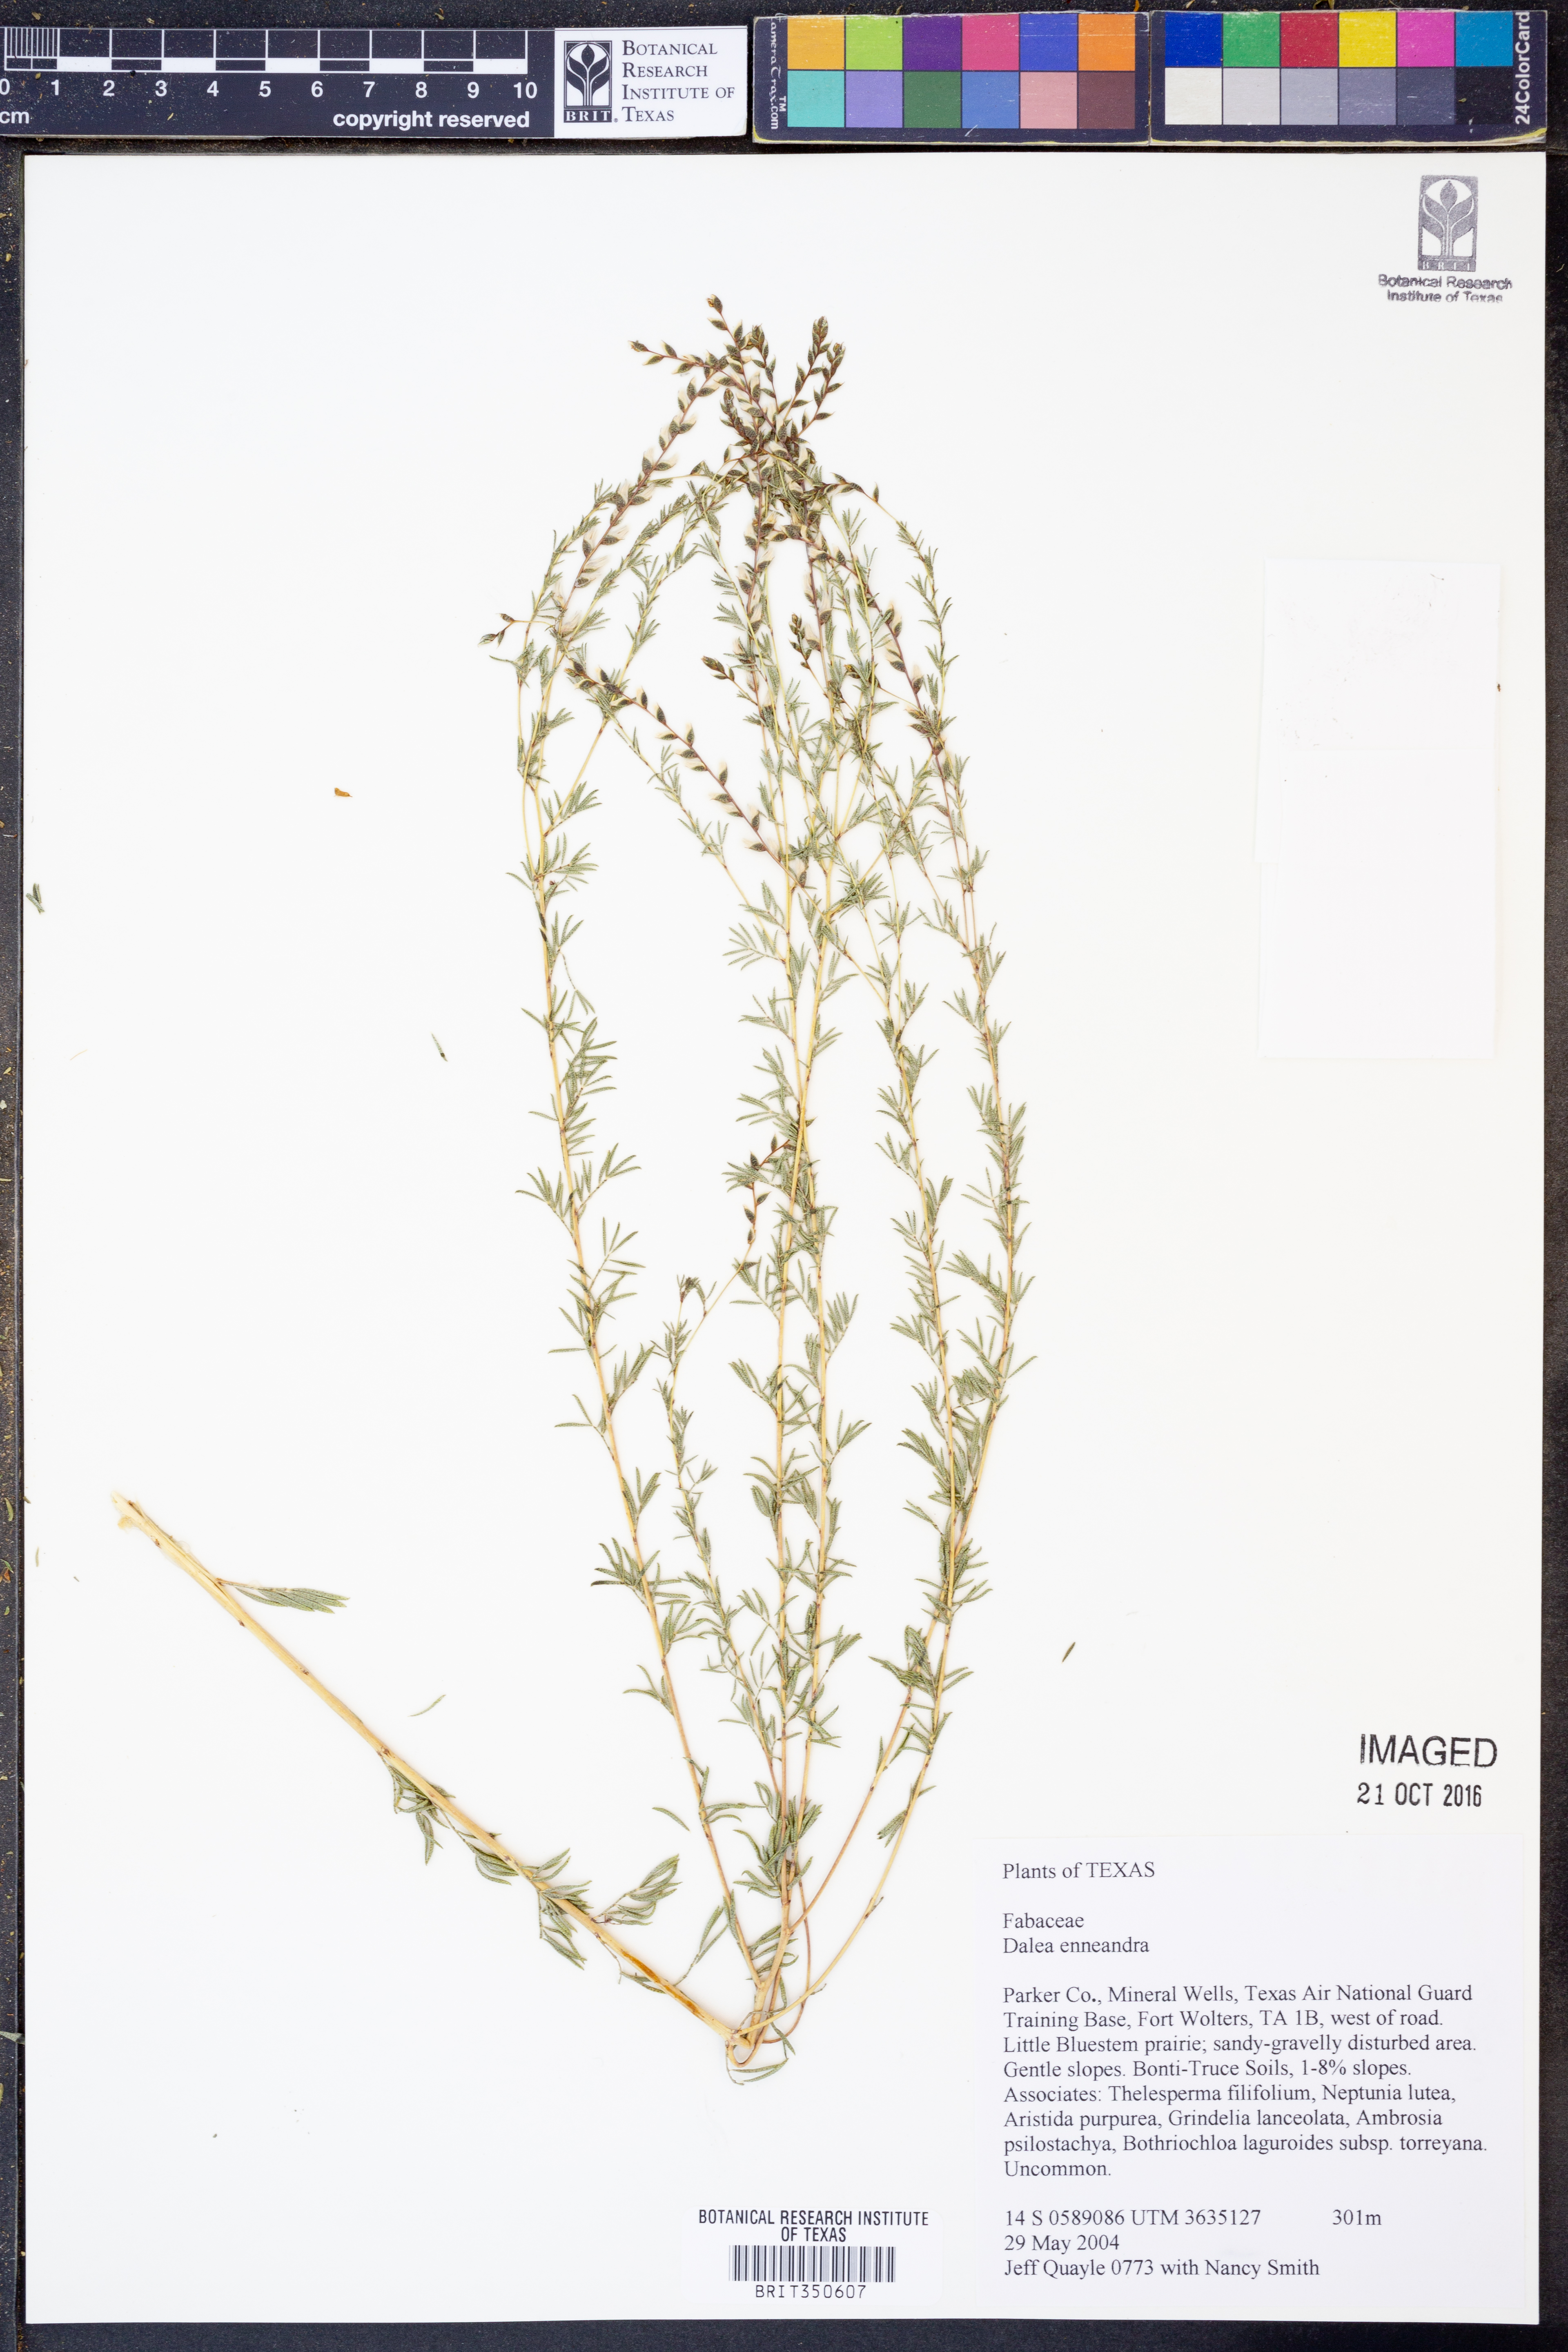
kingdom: Plantae
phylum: Tracheophyta
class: Magnoliopsida
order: Fabales
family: Fabaceae
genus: Dalea
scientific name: Dalea enneandra
